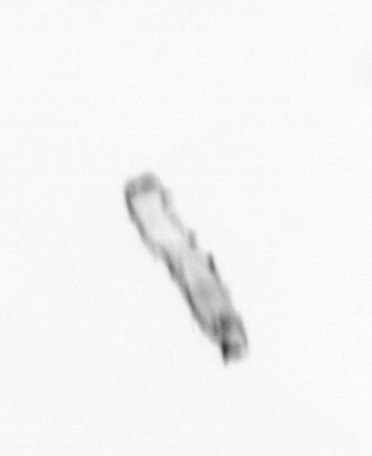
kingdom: Chromista
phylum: Ochrophyta
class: Bacillariophyceae
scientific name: Bacillariophyceae
